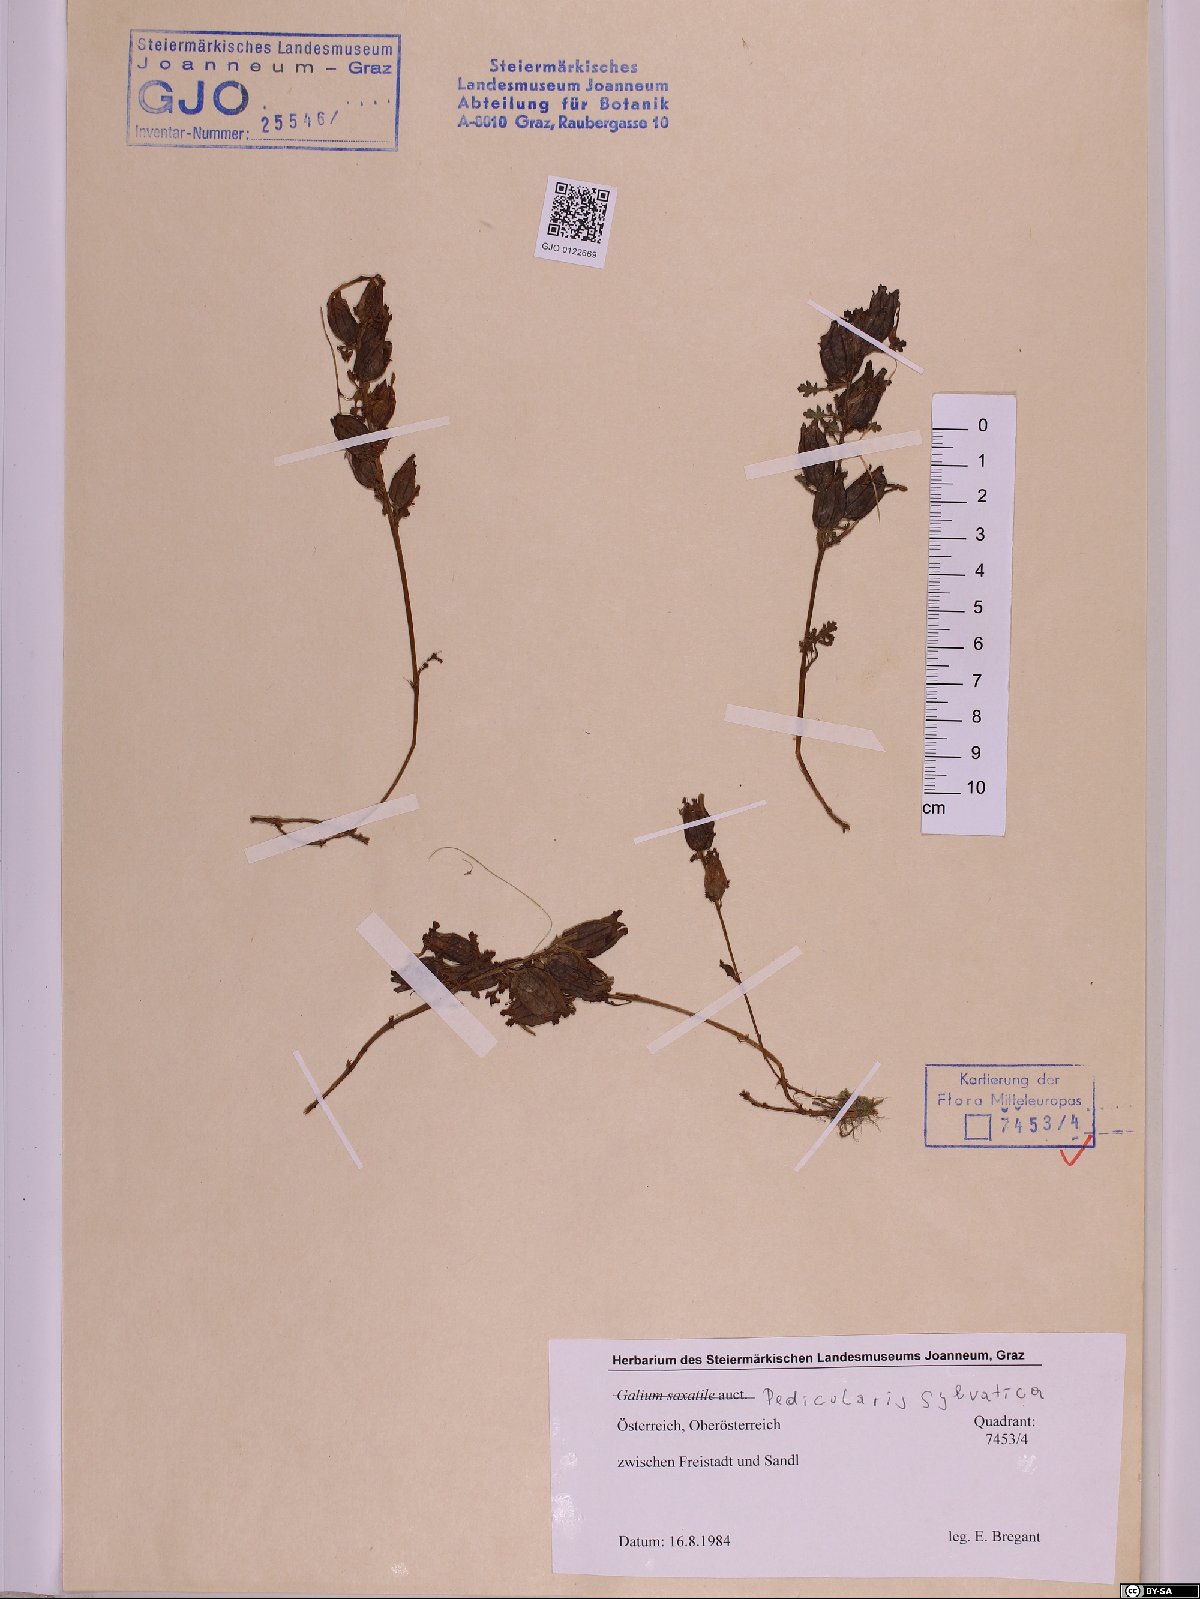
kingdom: Plantae
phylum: Tracheophyta
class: Magnoliopsida
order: Lamiales
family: Orobanchaceae
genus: Pedicularis
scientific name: Pedicularis sylvatica
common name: Lousewort
